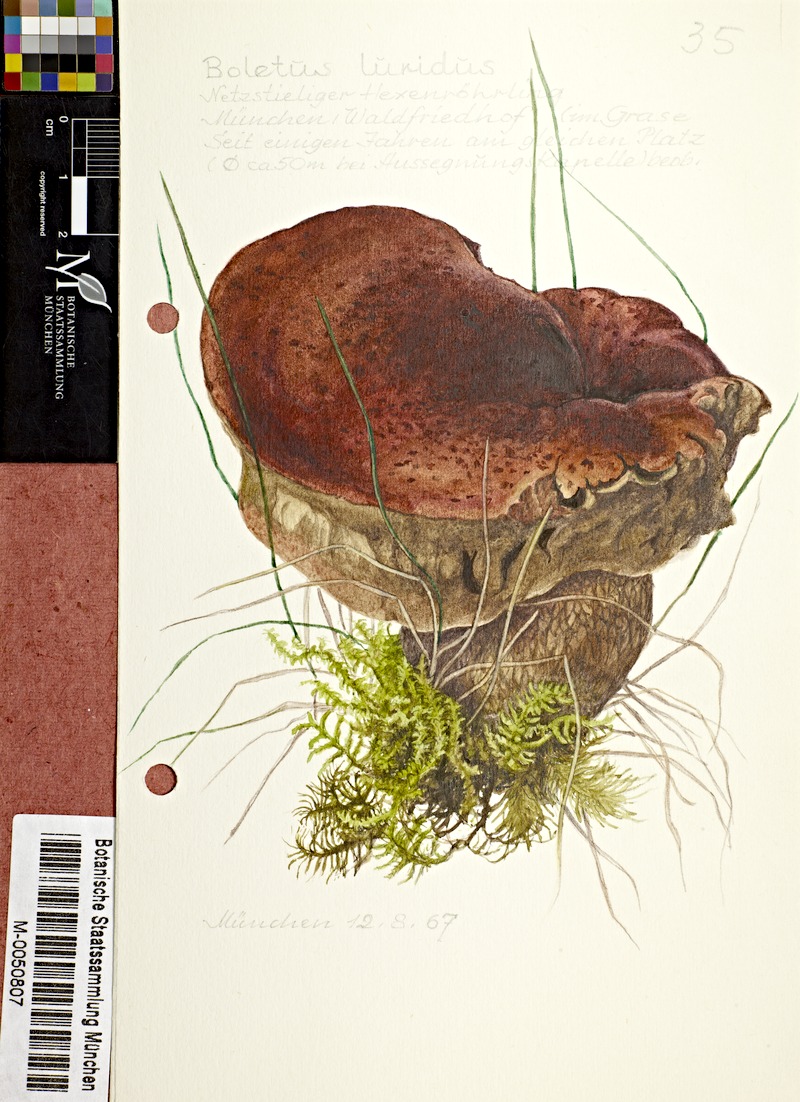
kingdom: Fungi
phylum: Basidiomycota
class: Agaricomycetes
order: Boletales
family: Boletaceae
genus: Suillellus
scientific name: Suillellus luridus
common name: Lurid bolete
